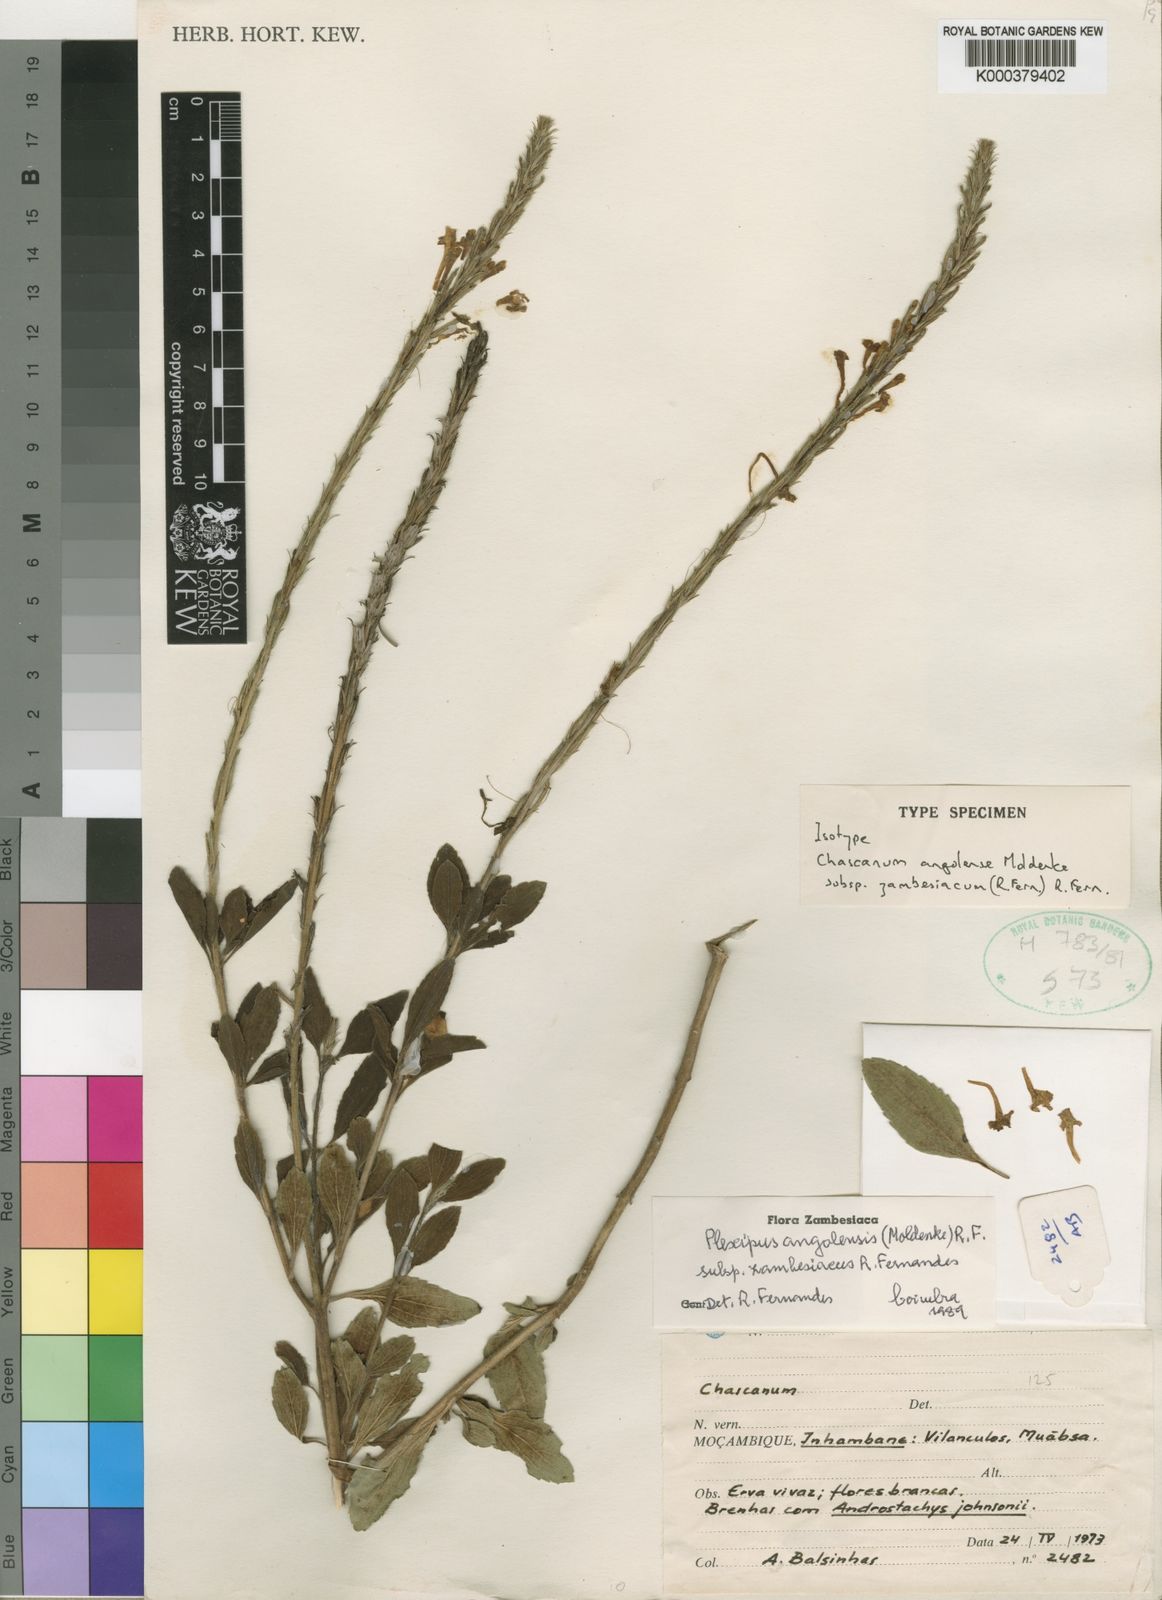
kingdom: Plantae
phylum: Tracheophyta
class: Magnoliopsida
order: Lamiales
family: Verbenaceae
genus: Chascanum
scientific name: Chascanum angolense
